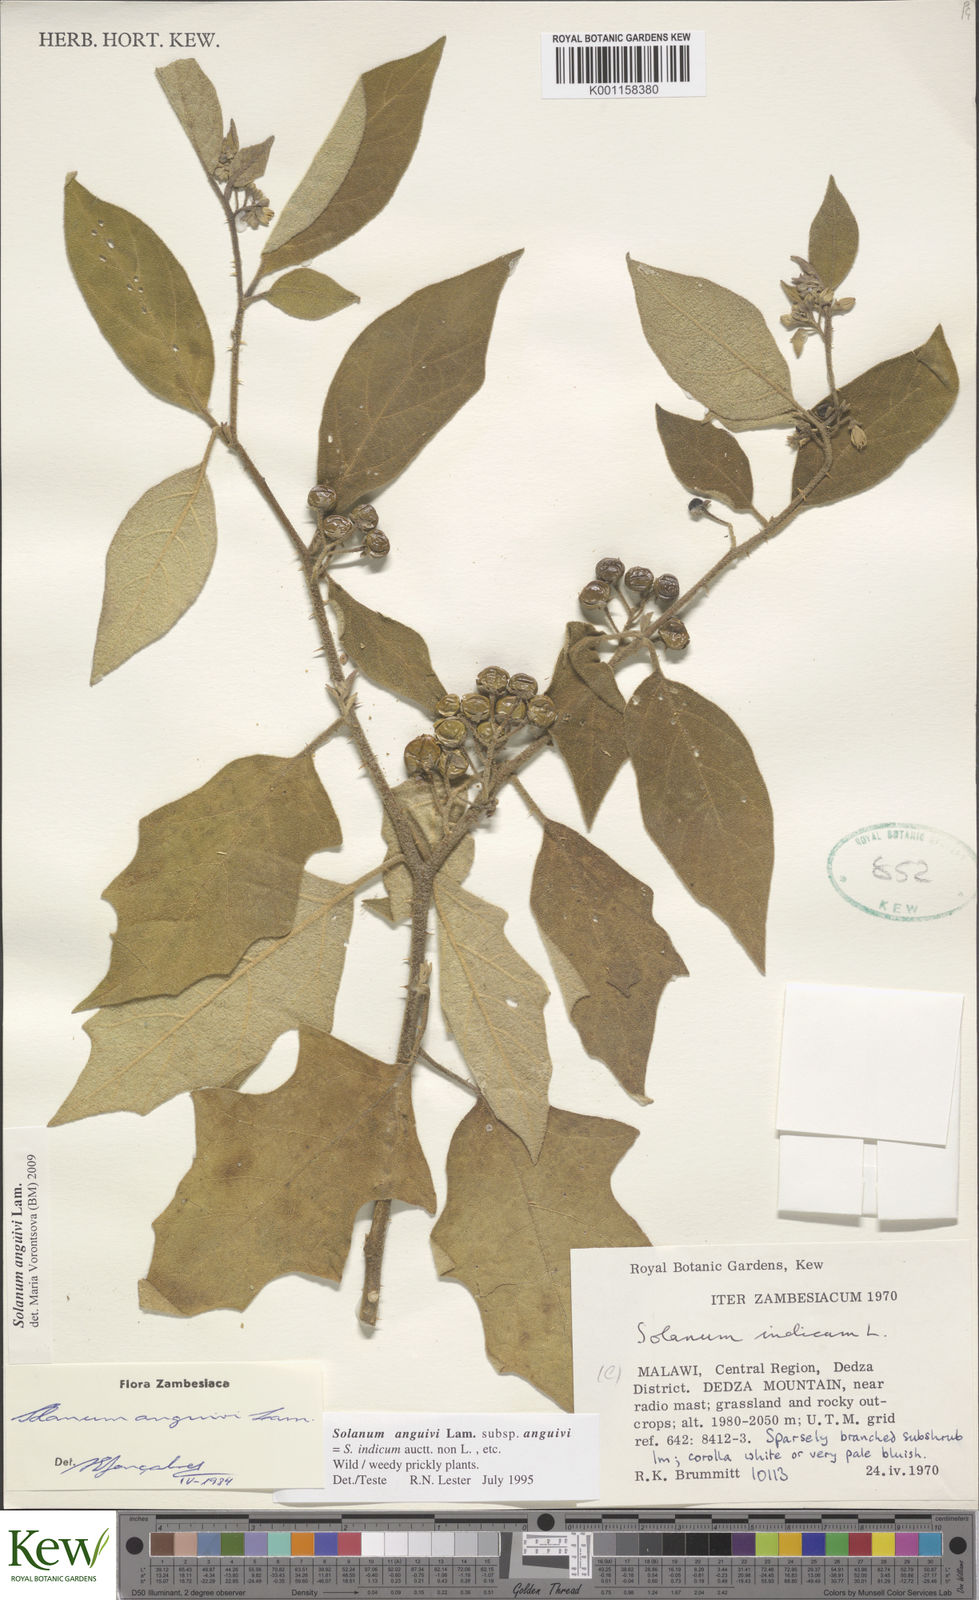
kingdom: Plantae
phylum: Tracheophyta
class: Magnoliopsida
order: Solanales
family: Solanaceae
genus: Solanum
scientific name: Solanum anguivi
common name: Forest bitterberry
